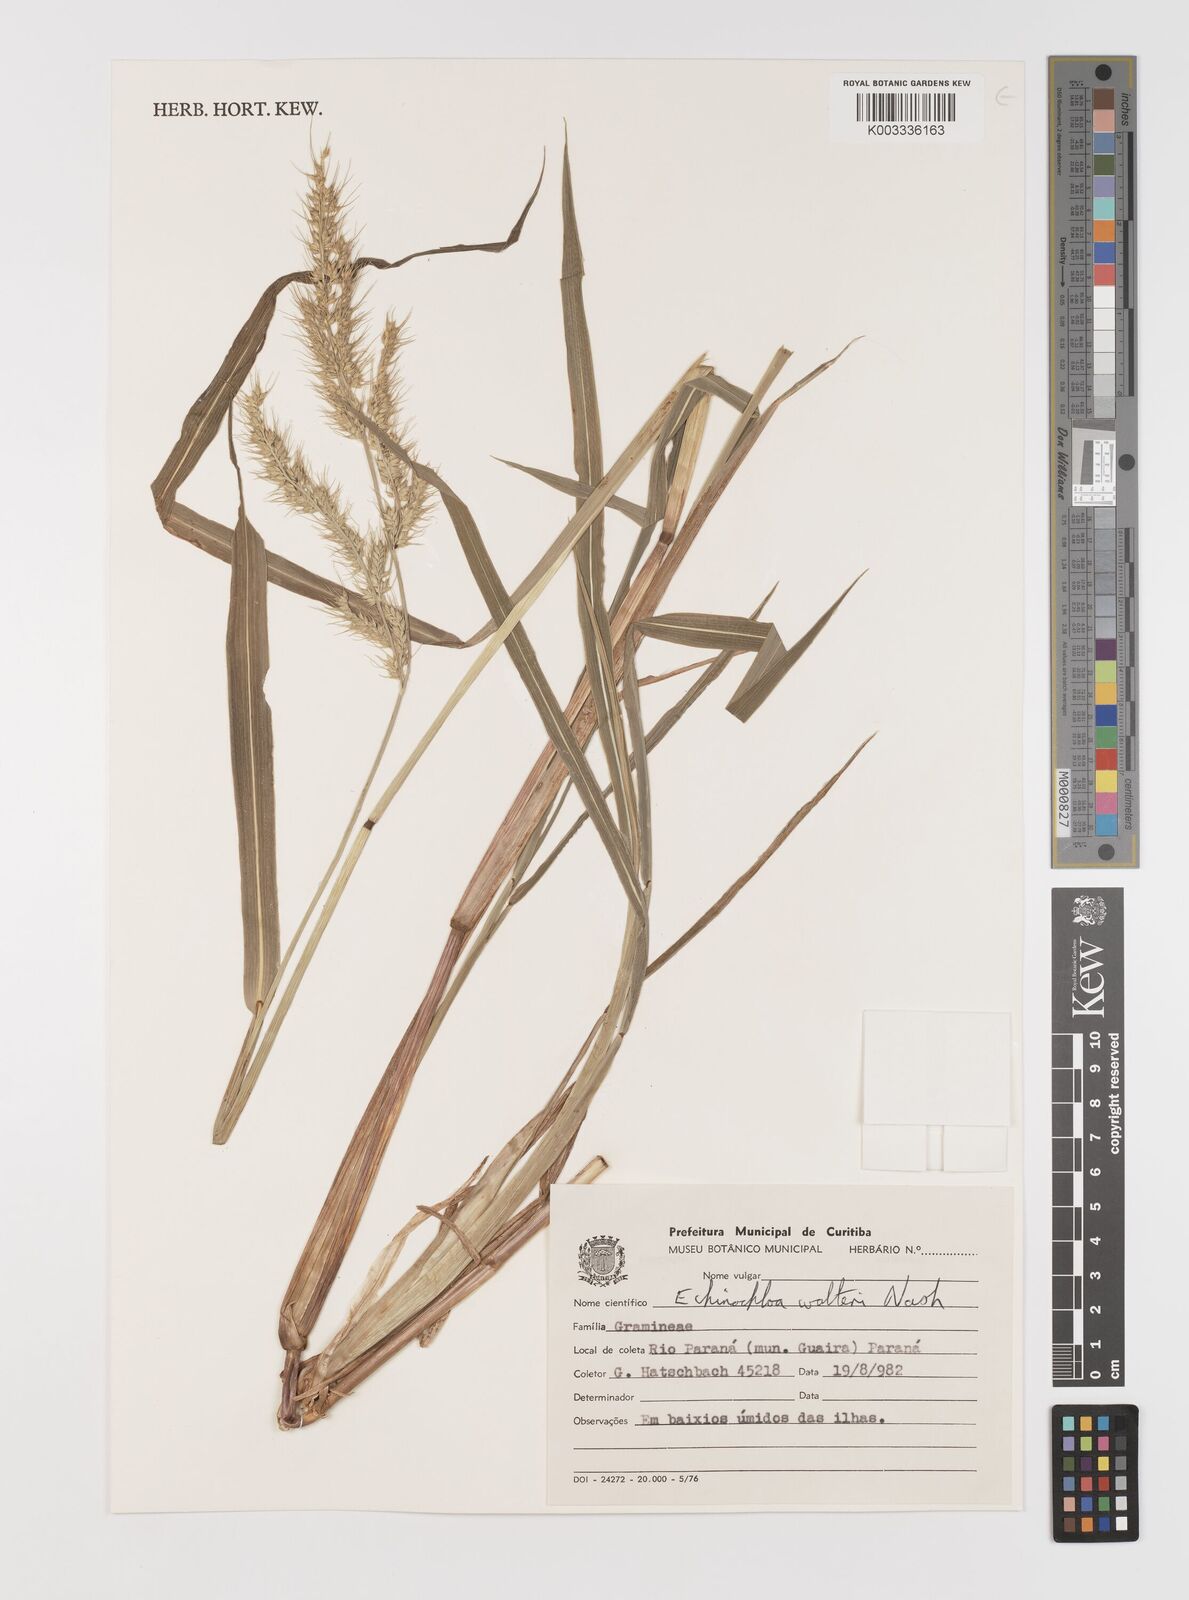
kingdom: Plantae
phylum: Tracheophyta
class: Liliopsida
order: Poales
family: Poaceae
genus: Echinochloa
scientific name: Echinochloa crus-pavonis
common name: Gulf cockspur grass
